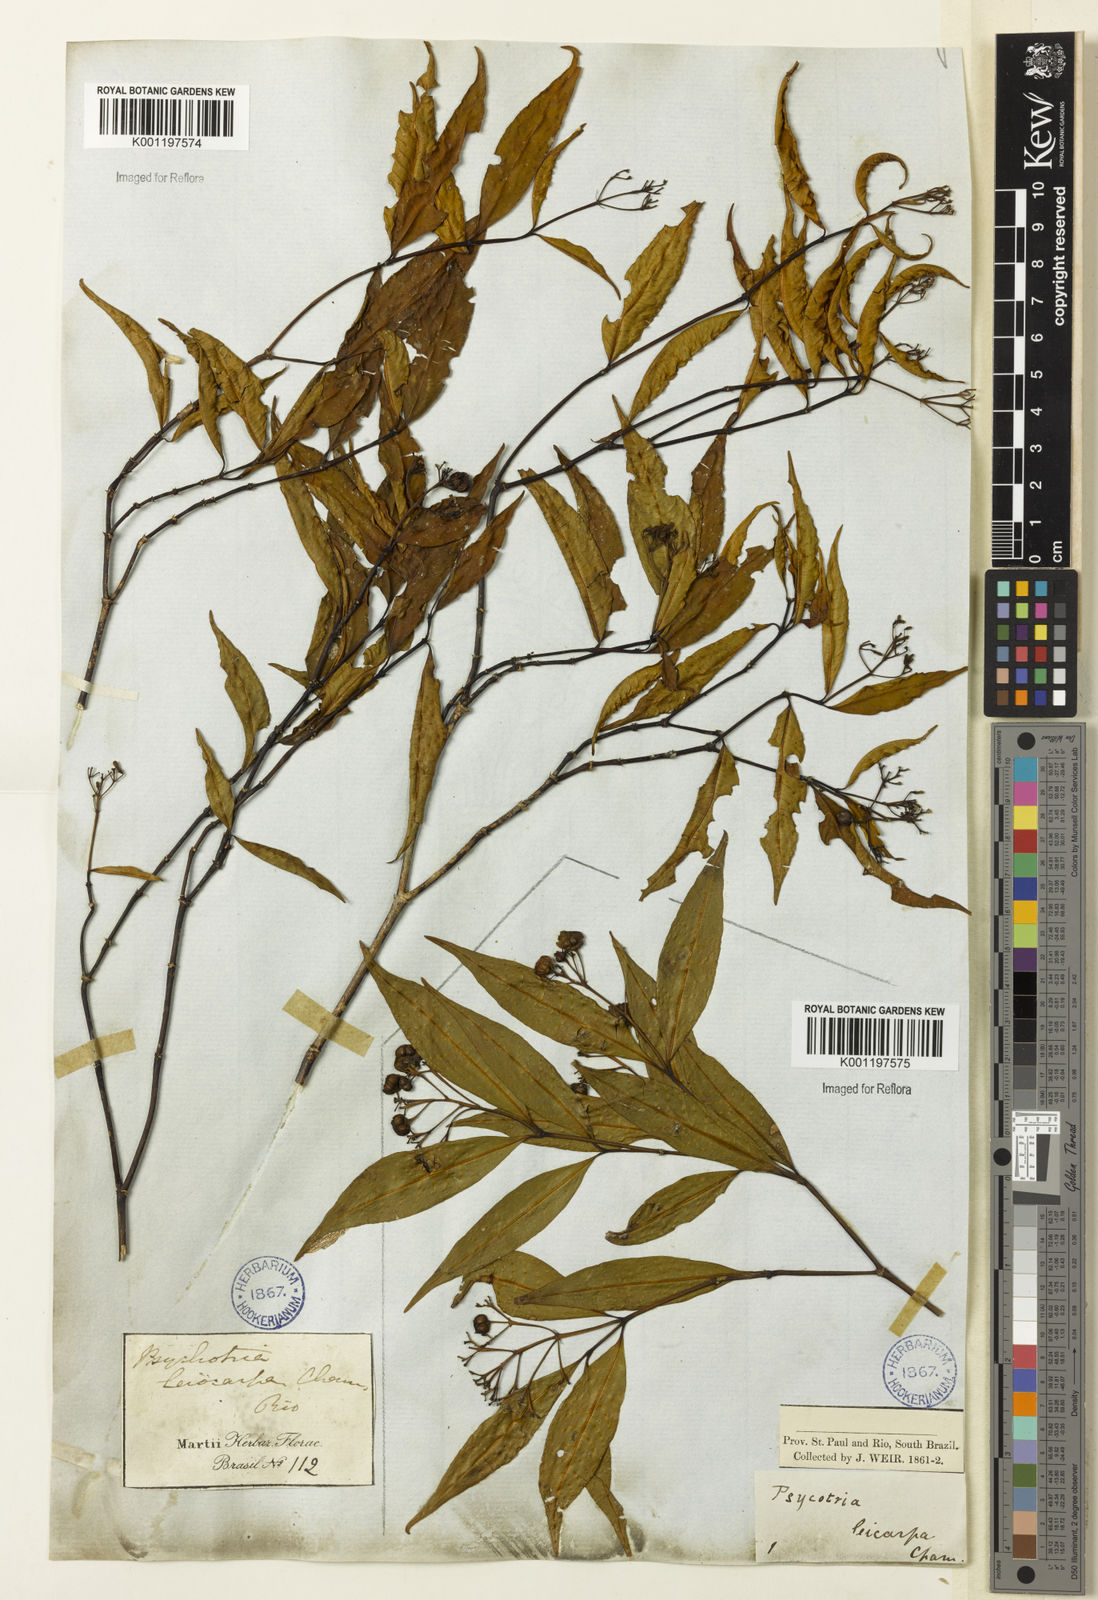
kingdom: Plantae
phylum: Tracheophyta
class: Magnoliopsida
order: Gentianales
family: Rubiaceae
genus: Psychotria
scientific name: Psychotria leiocarpa
